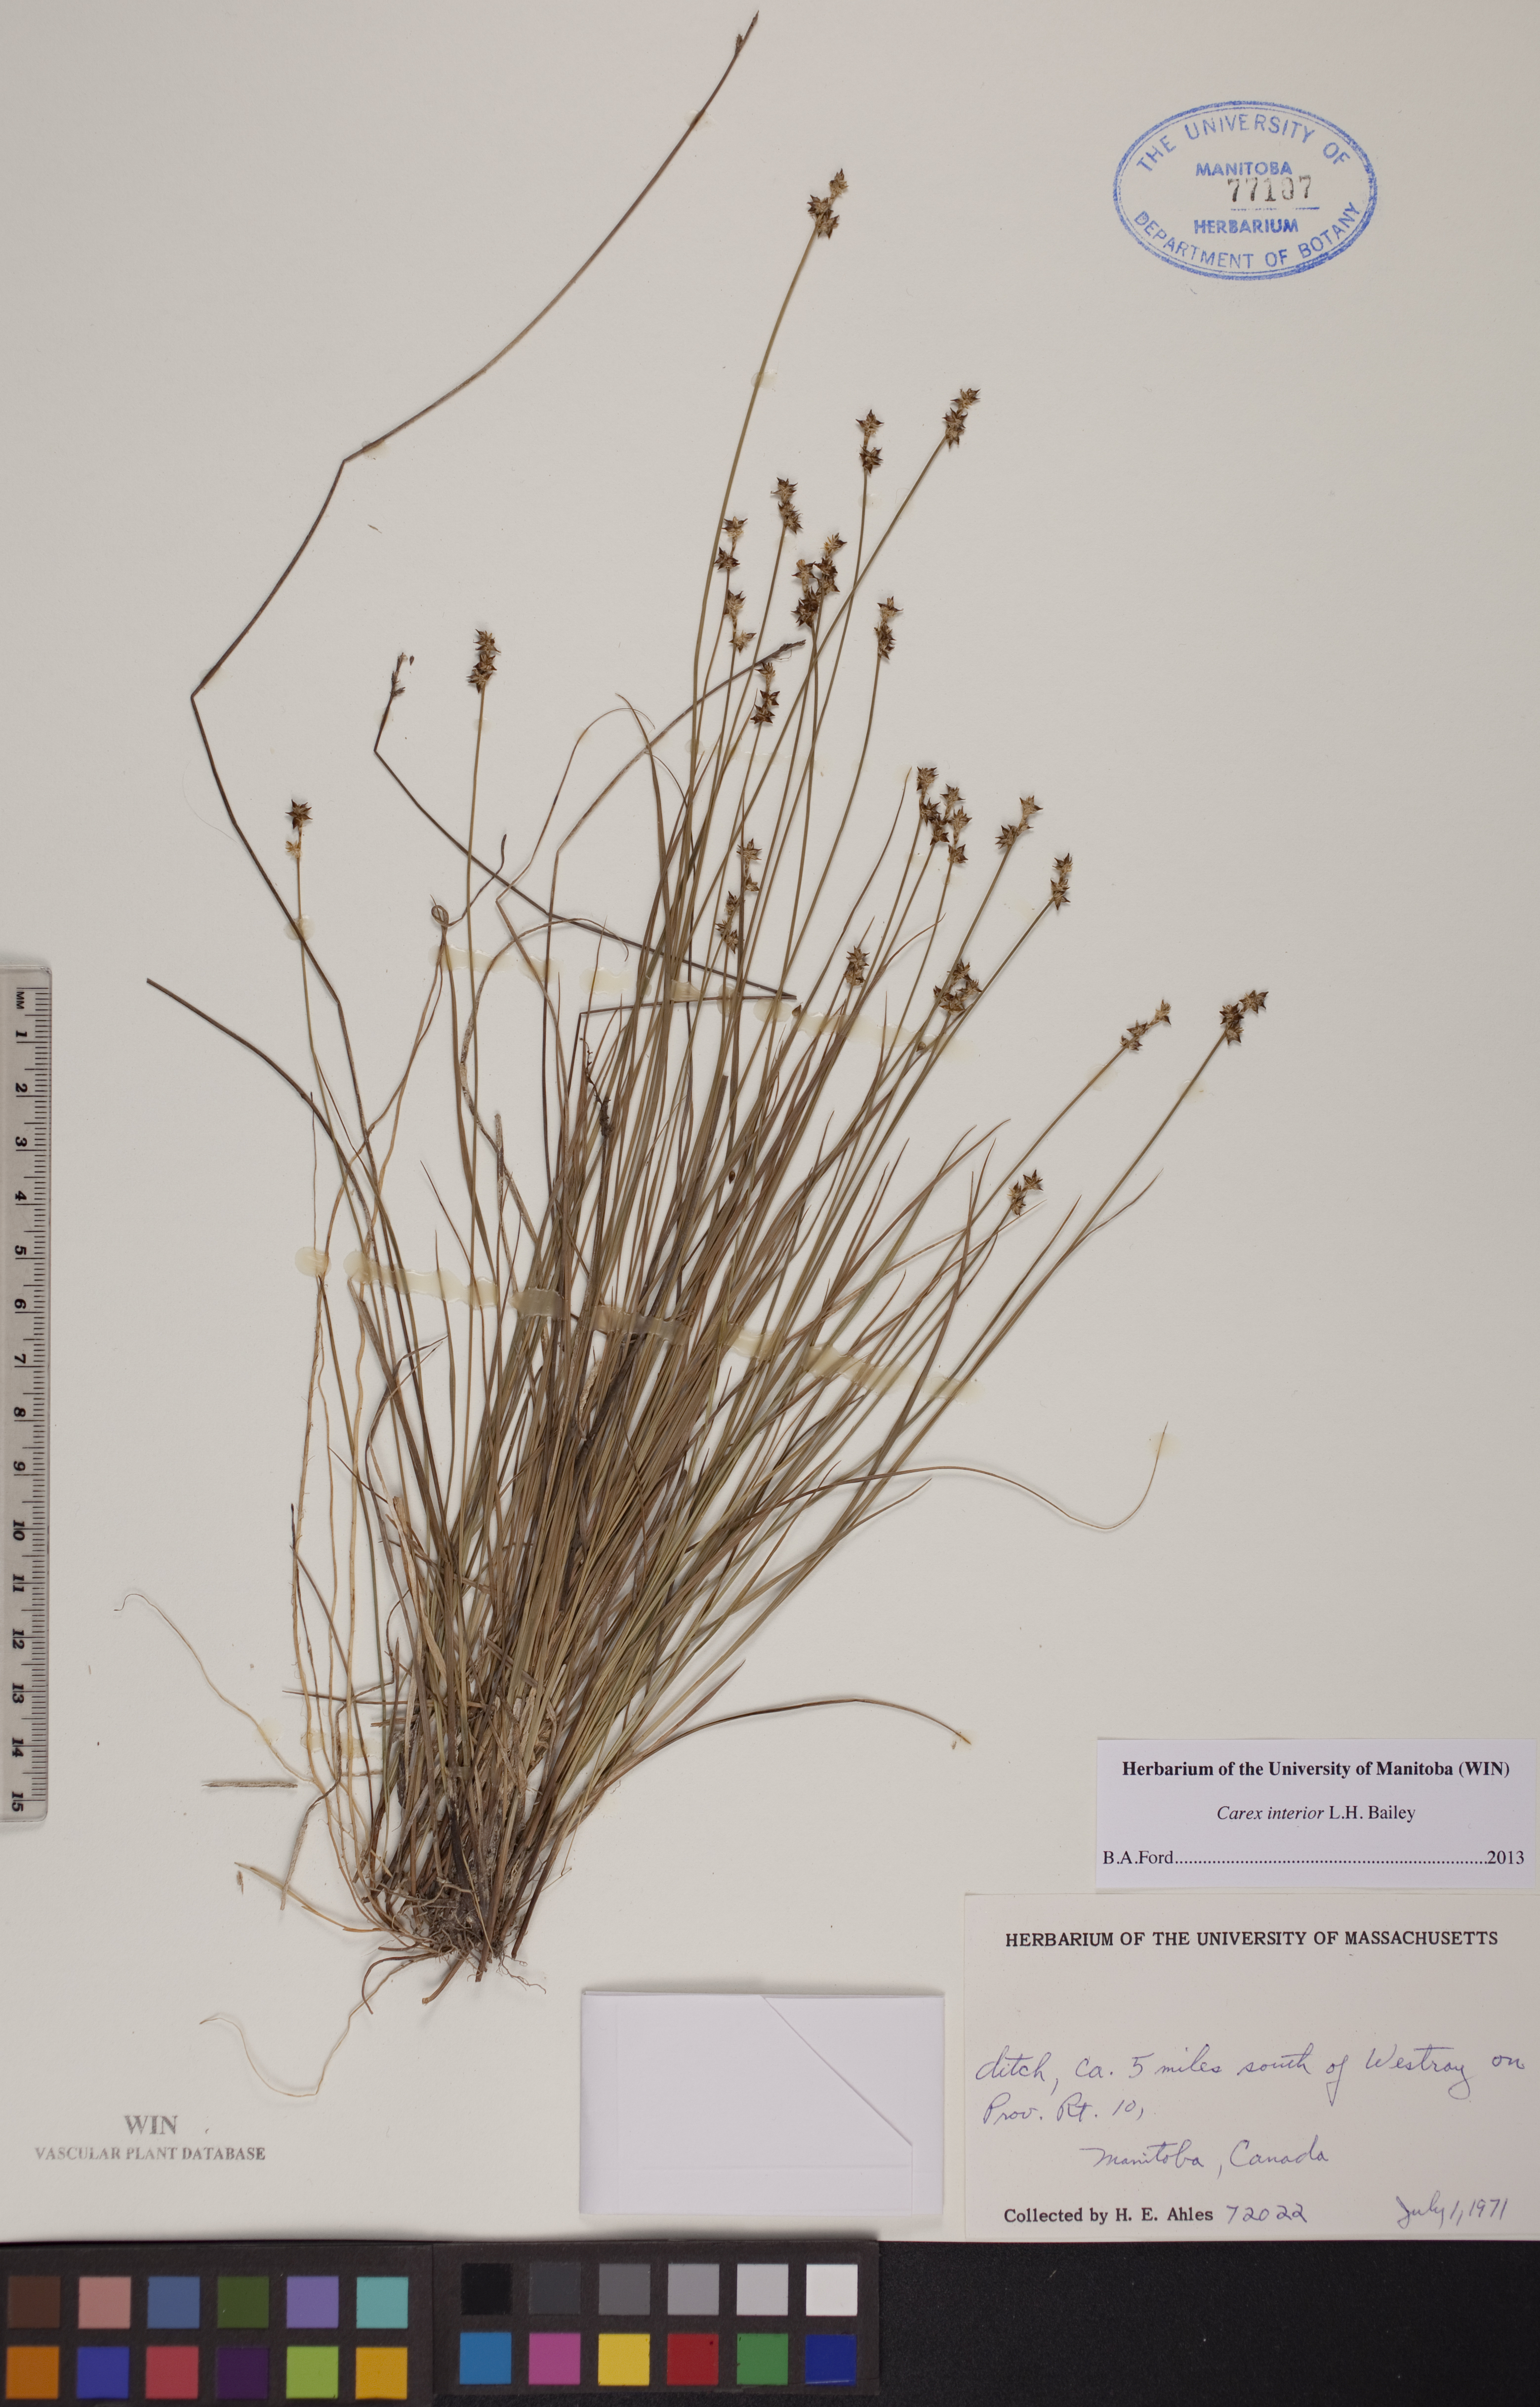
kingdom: Plantae
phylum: Tracheophyta
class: Liliopsida
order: Poales
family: Cyperaceae
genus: Carex
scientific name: Carex interior
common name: Inland sedge
